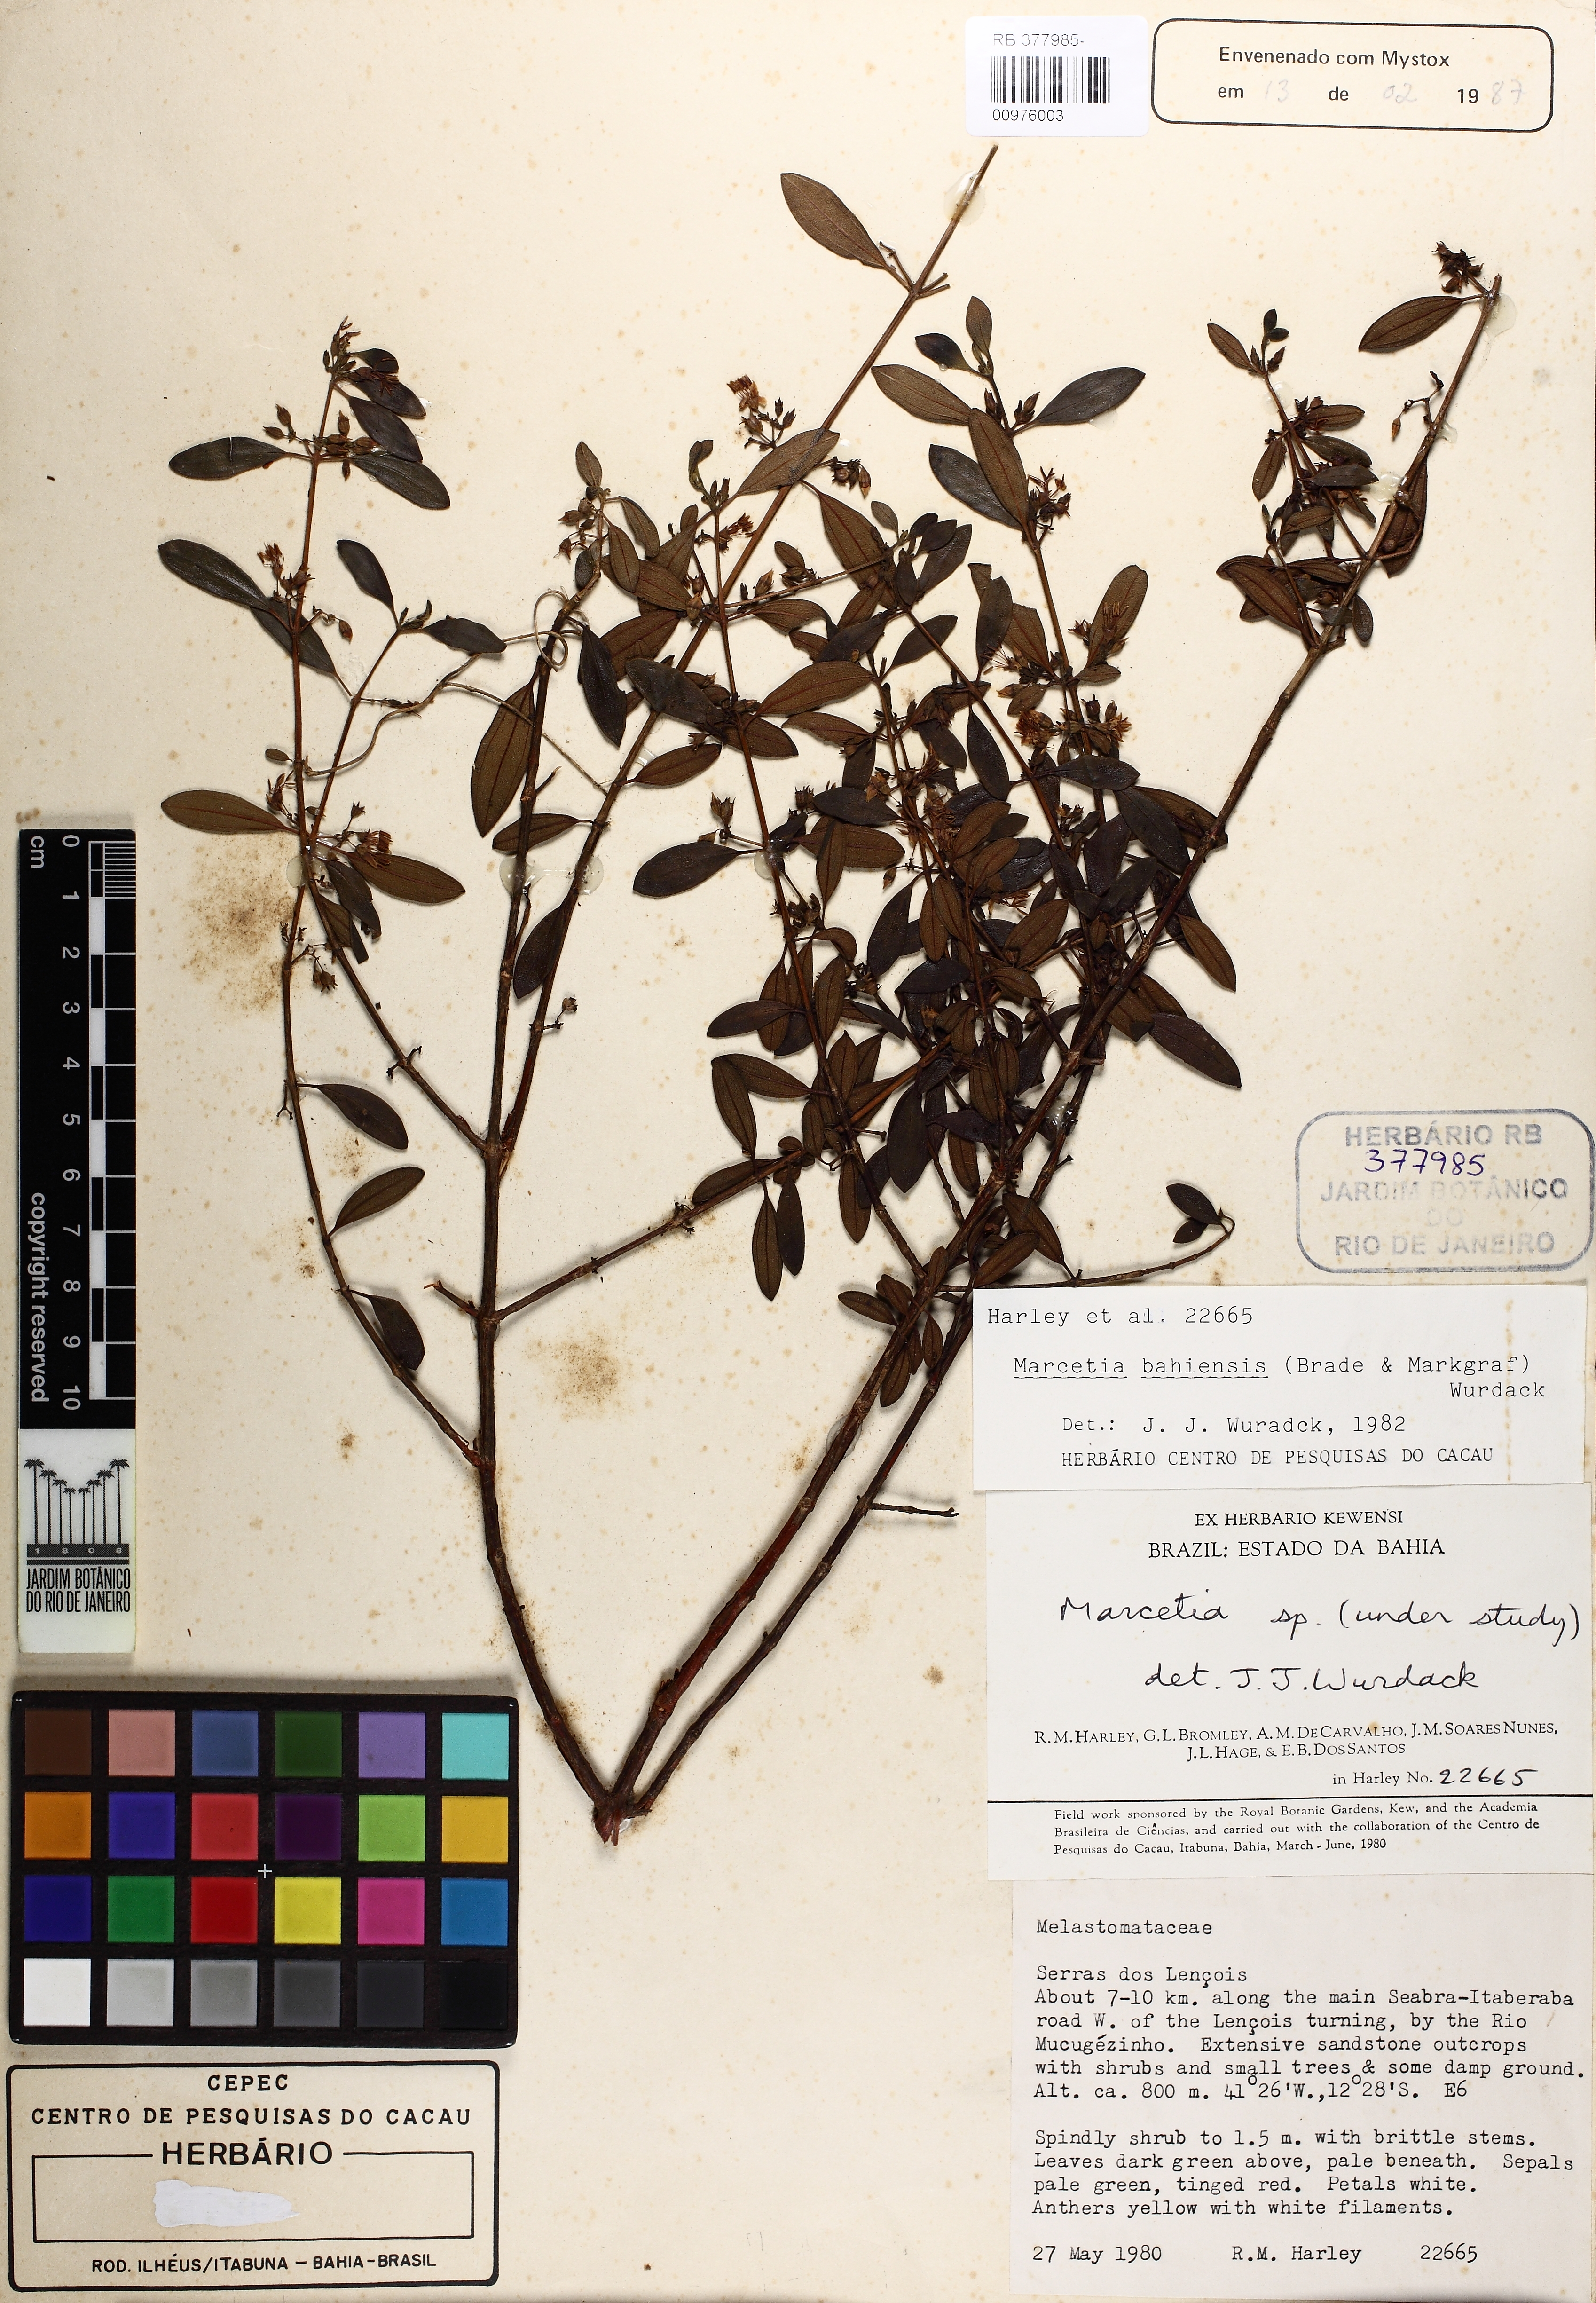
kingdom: Plantae
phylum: Tracheophyta
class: Magnoliopsida
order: Myrtales
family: Melastomataceae
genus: Marcetia
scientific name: Marcetia bahiensis
